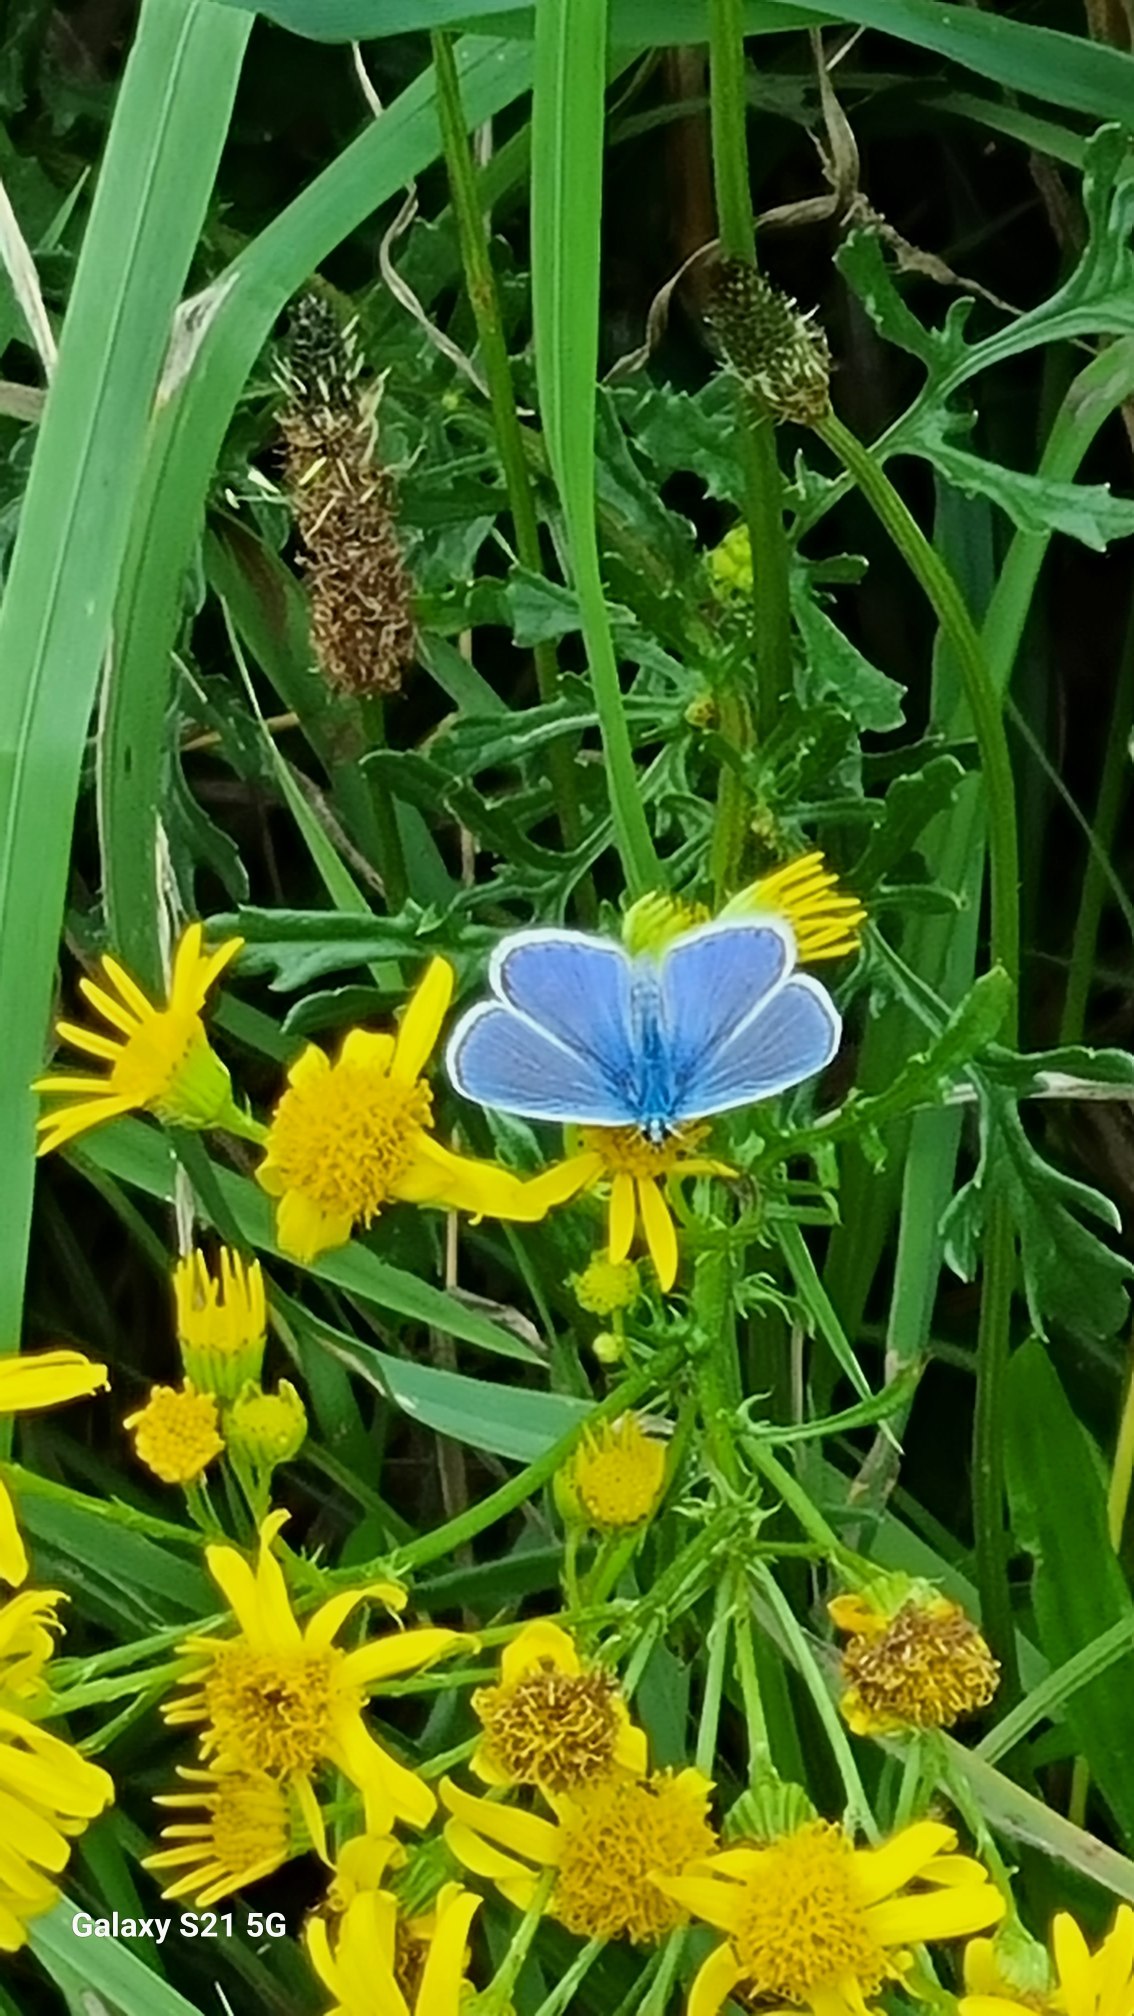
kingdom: Animalia
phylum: Arthropoda
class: Insecta
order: Lepidoptera
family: Lycaenidae
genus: Polyommatus
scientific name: Polyommatus icarus
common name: Almindelig blåfugl
